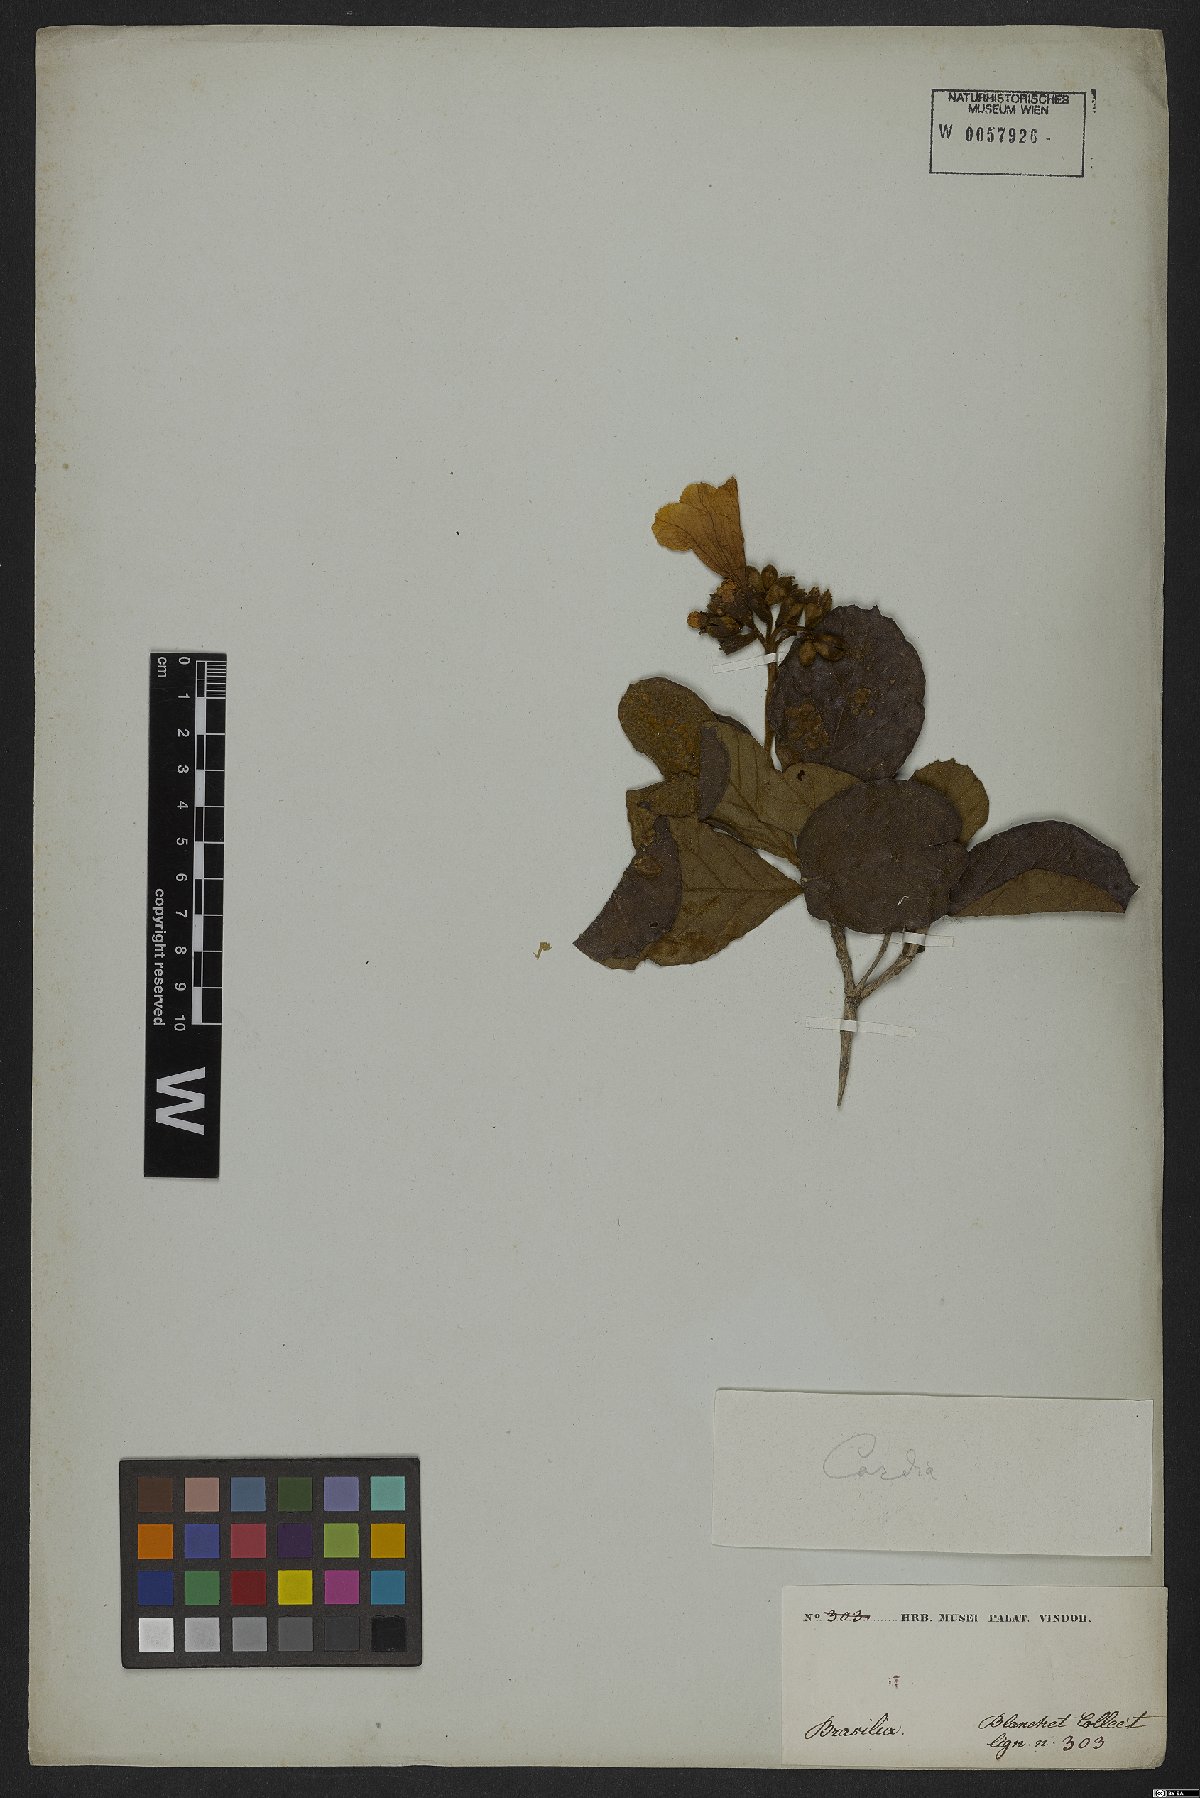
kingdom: Plantae
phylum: Tracheophyta
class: Magnoliopsida
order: Boraginales
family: Cordiaceae
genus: Cordia
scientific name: Cordia
